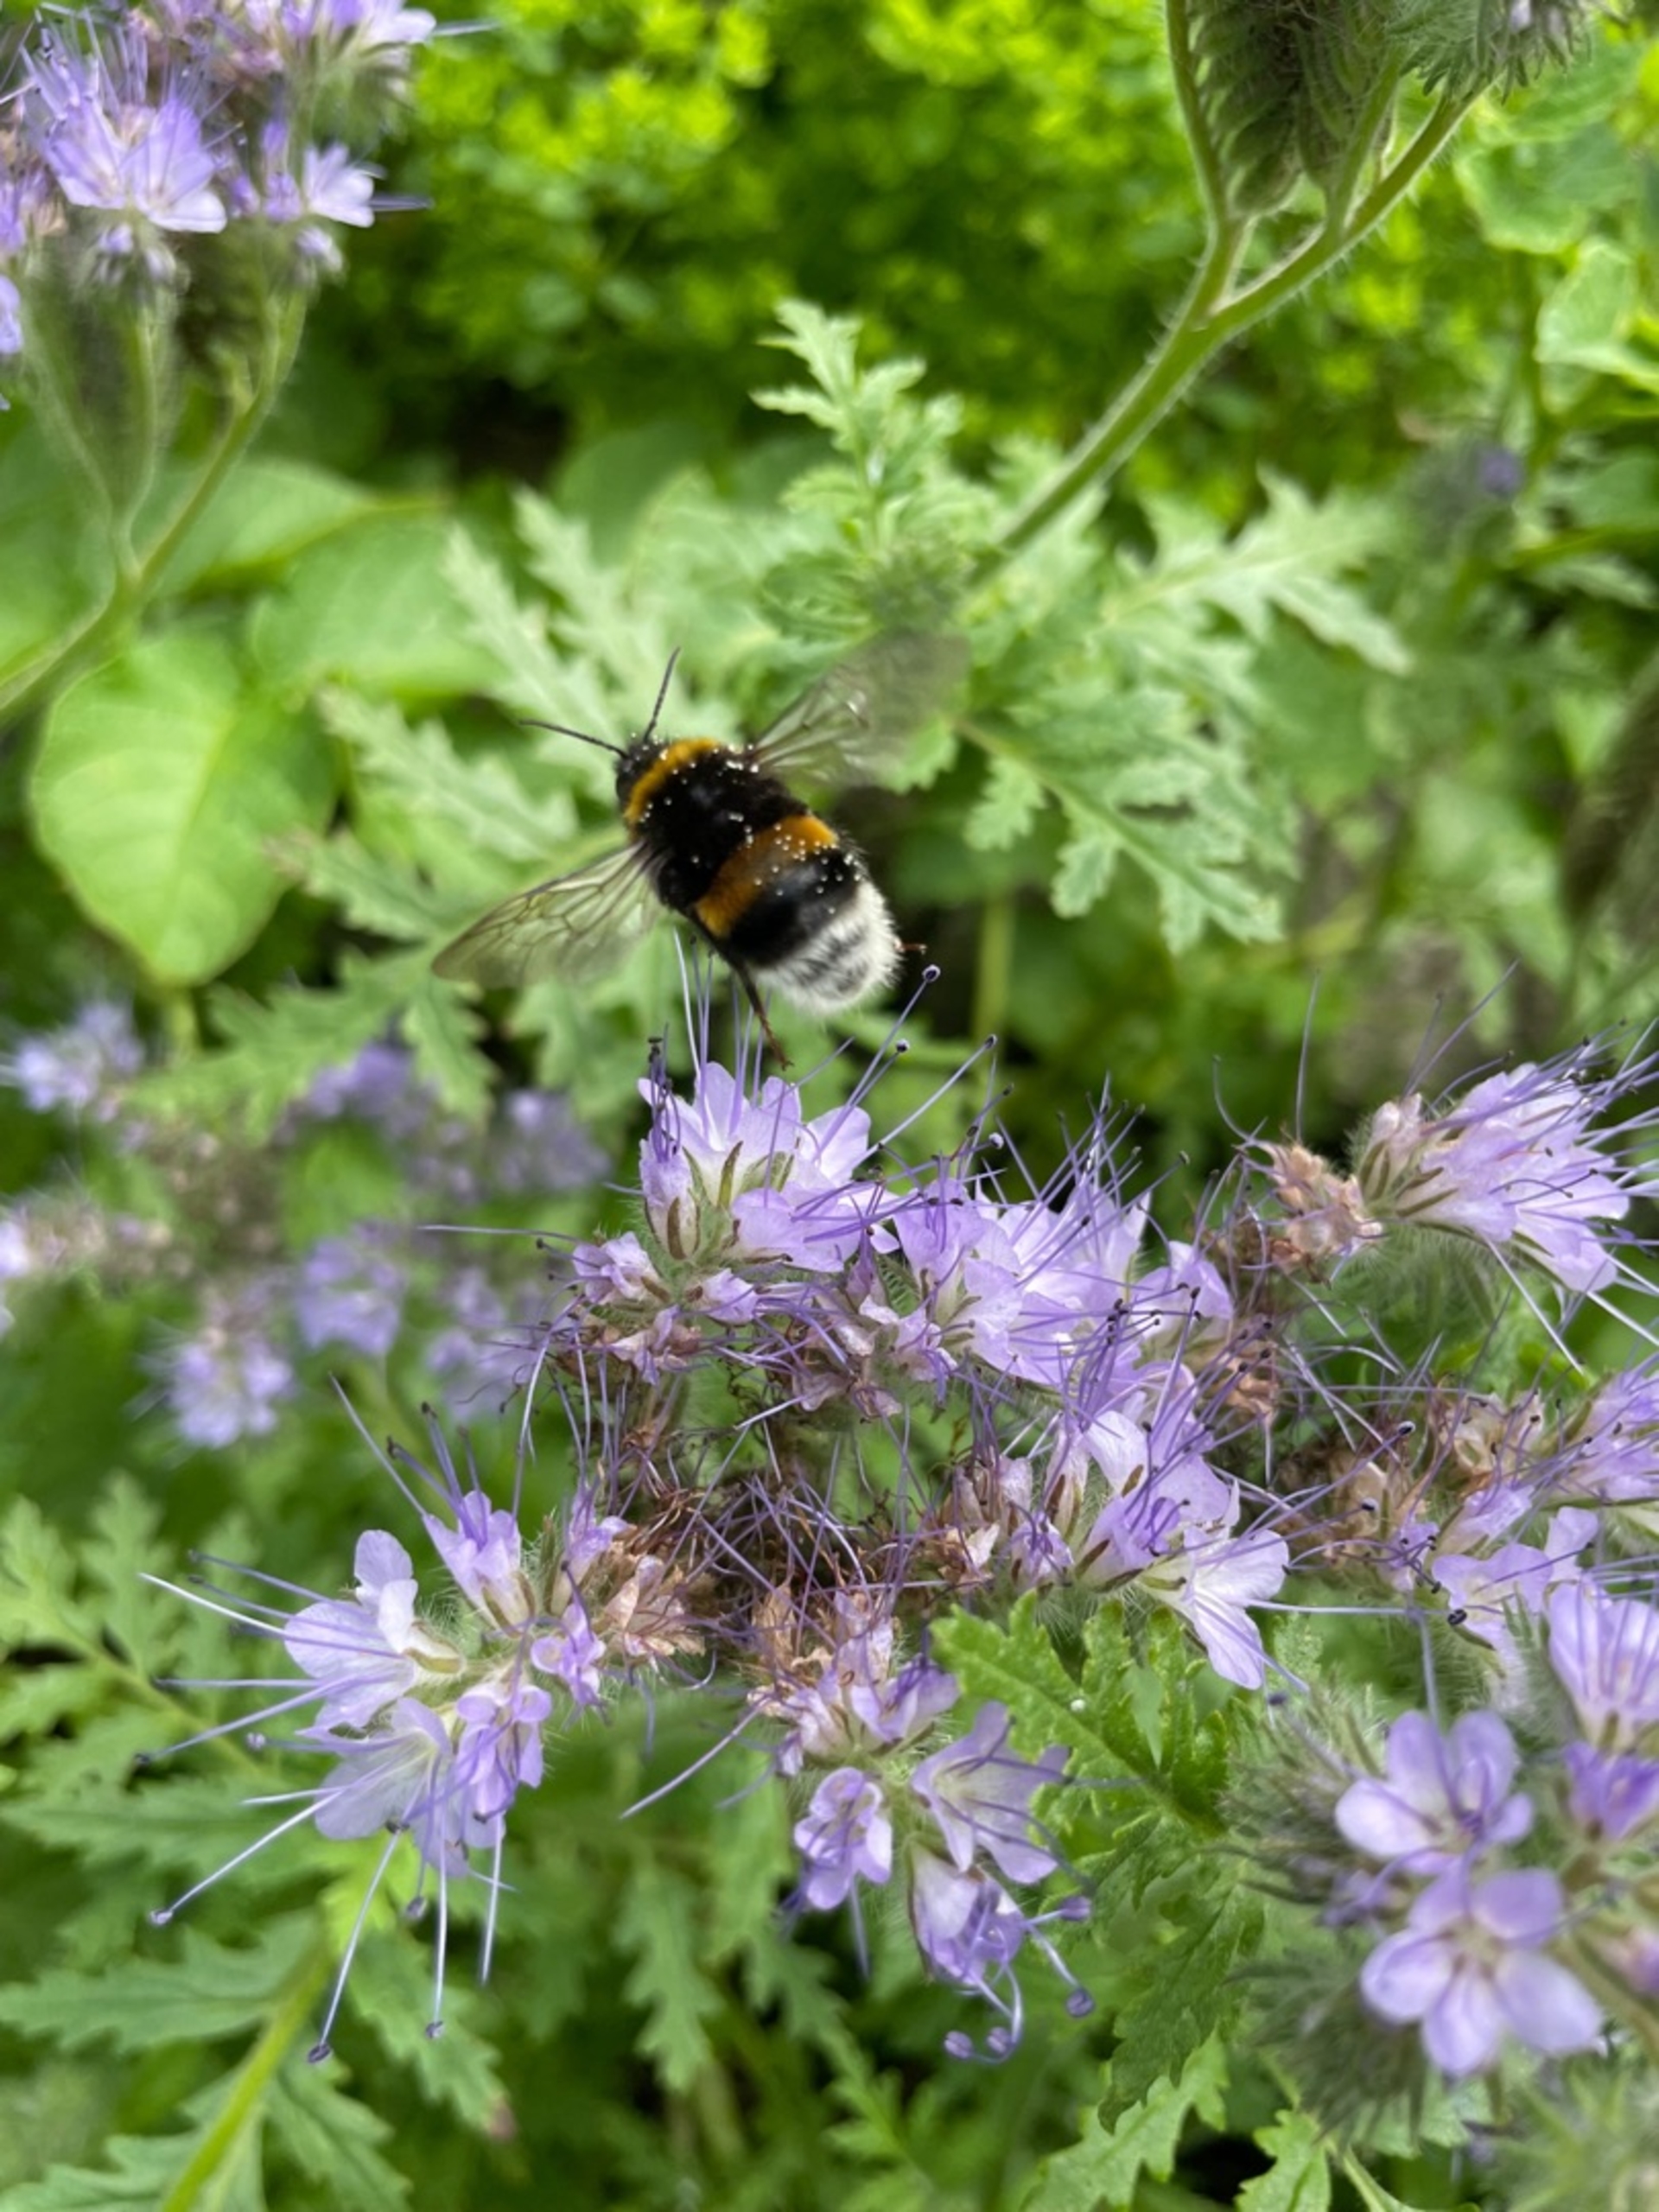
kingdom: Animalia
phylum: Arthropoda
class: Insecta
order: Hymenoptera
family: Apidae
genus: Bombus
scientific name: Bombus
